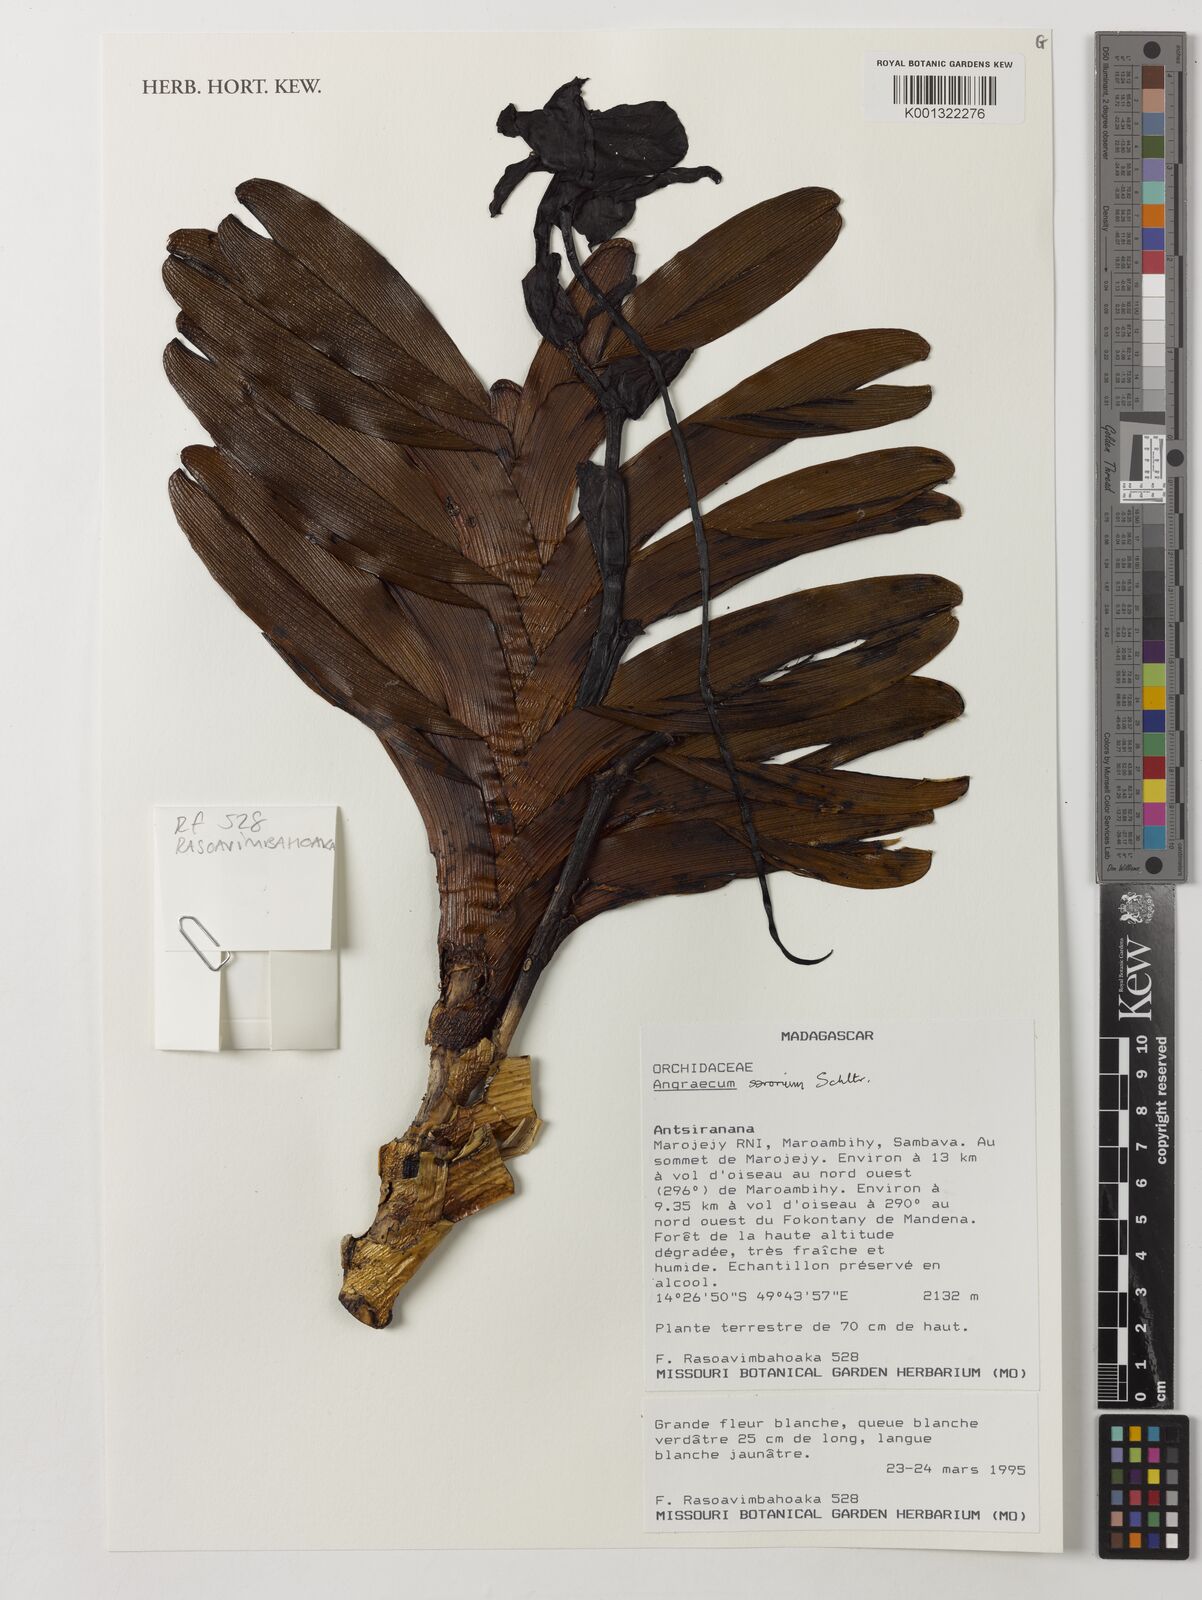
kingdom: Plantae
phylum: Tracheophyta
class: Liliopsida
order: Asparagales
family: Orchidaceae
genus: Angraecum
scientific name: Angraecum sororium
